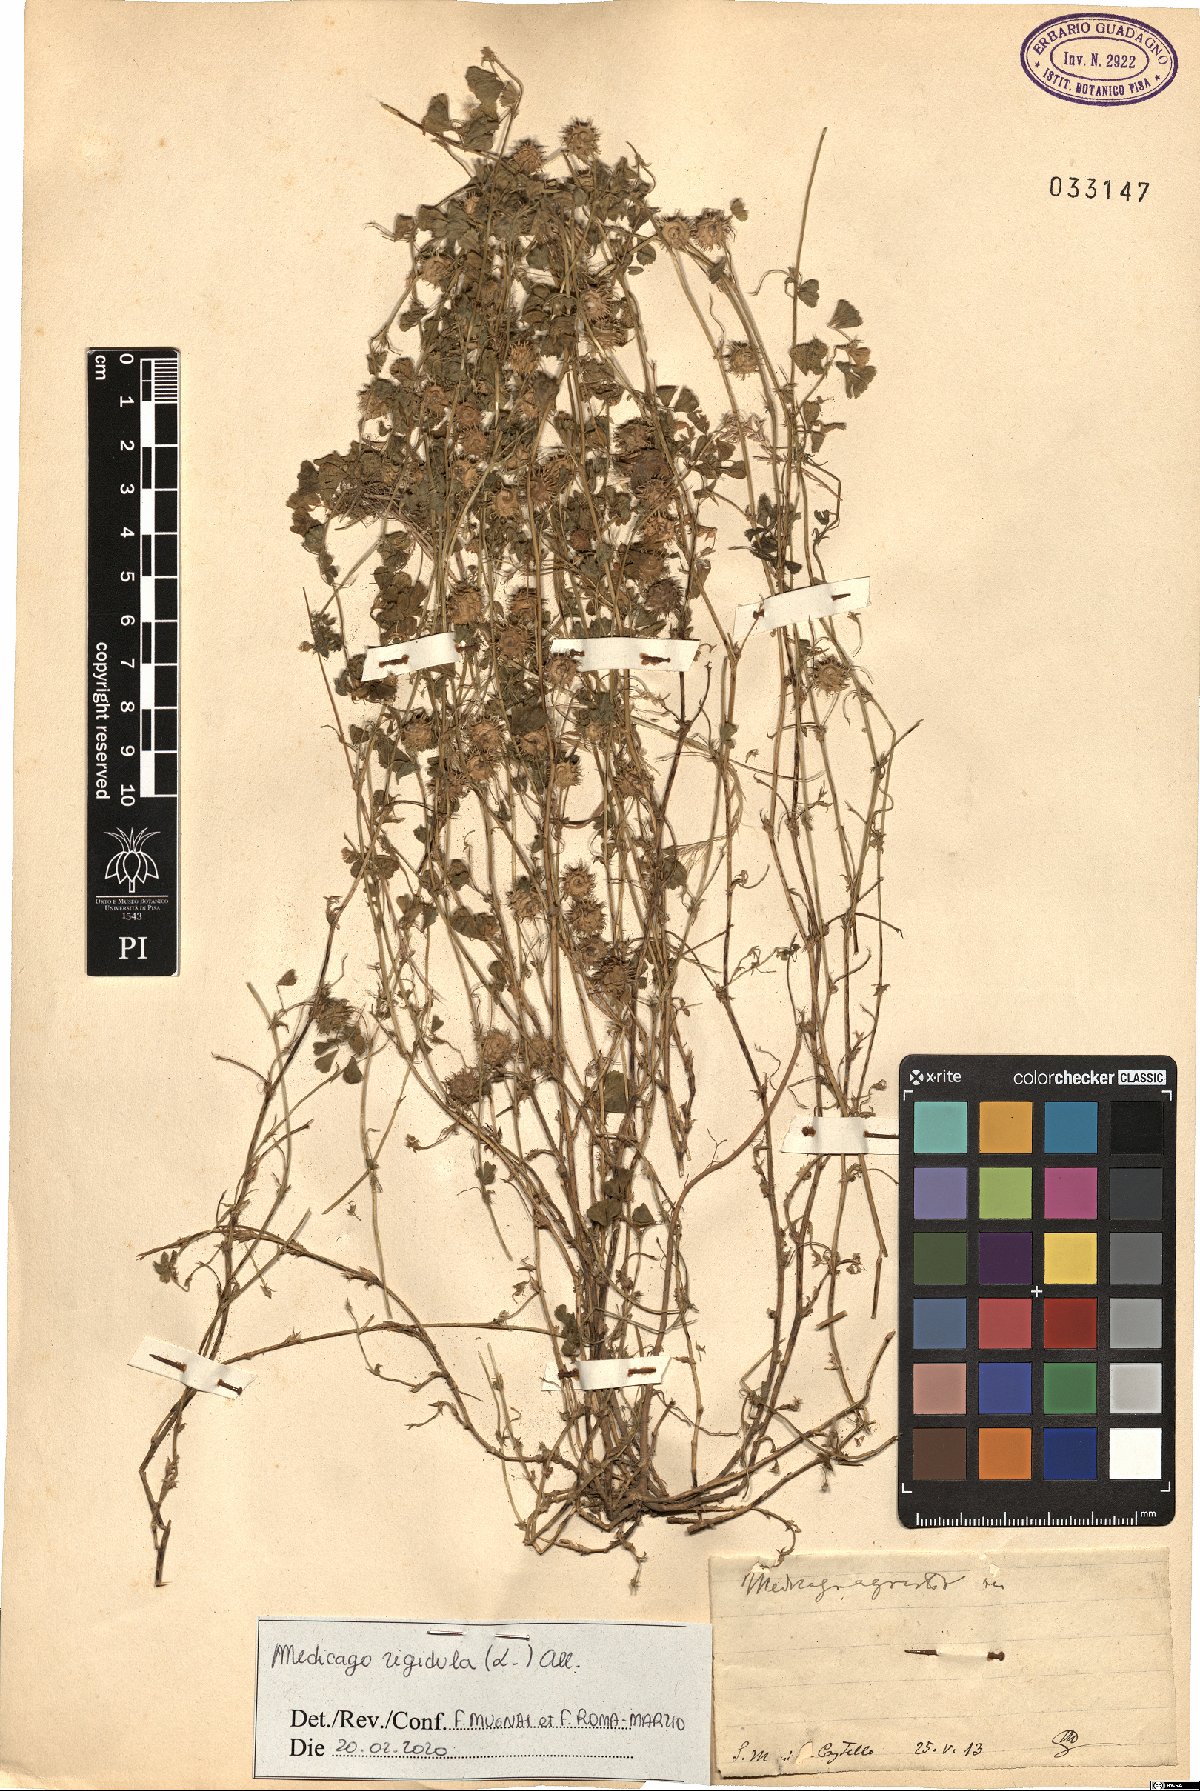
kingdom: Plantae
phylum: Tracheophyta
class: Magnoliopsida
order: Fabales
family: Fabaceae
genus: Medicago
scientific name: Medicago rigidula
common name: Tifton medic
